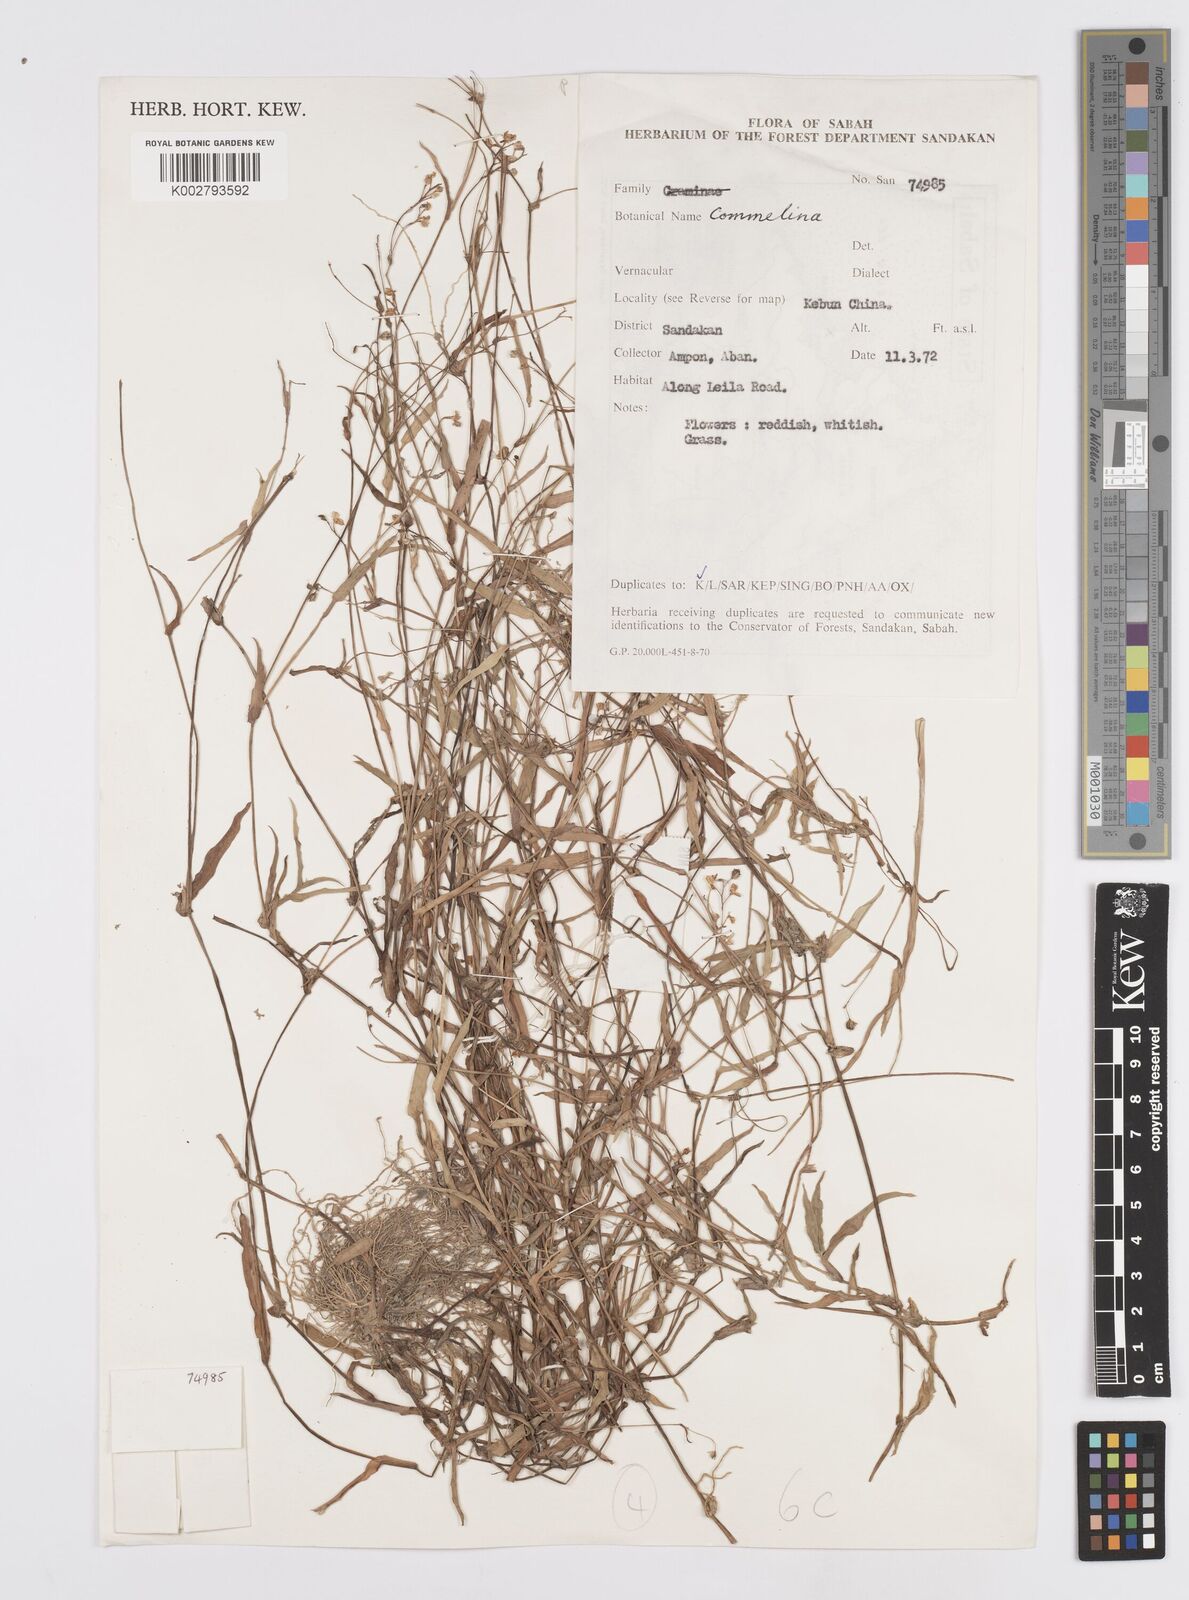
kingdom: Plantae
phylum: Tracheophyta
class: Liliopsida
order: Commelinales
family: Commelinaceae
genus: Murdannia
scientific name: Murdannia nudiflora
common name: Nakedstem dewflower
